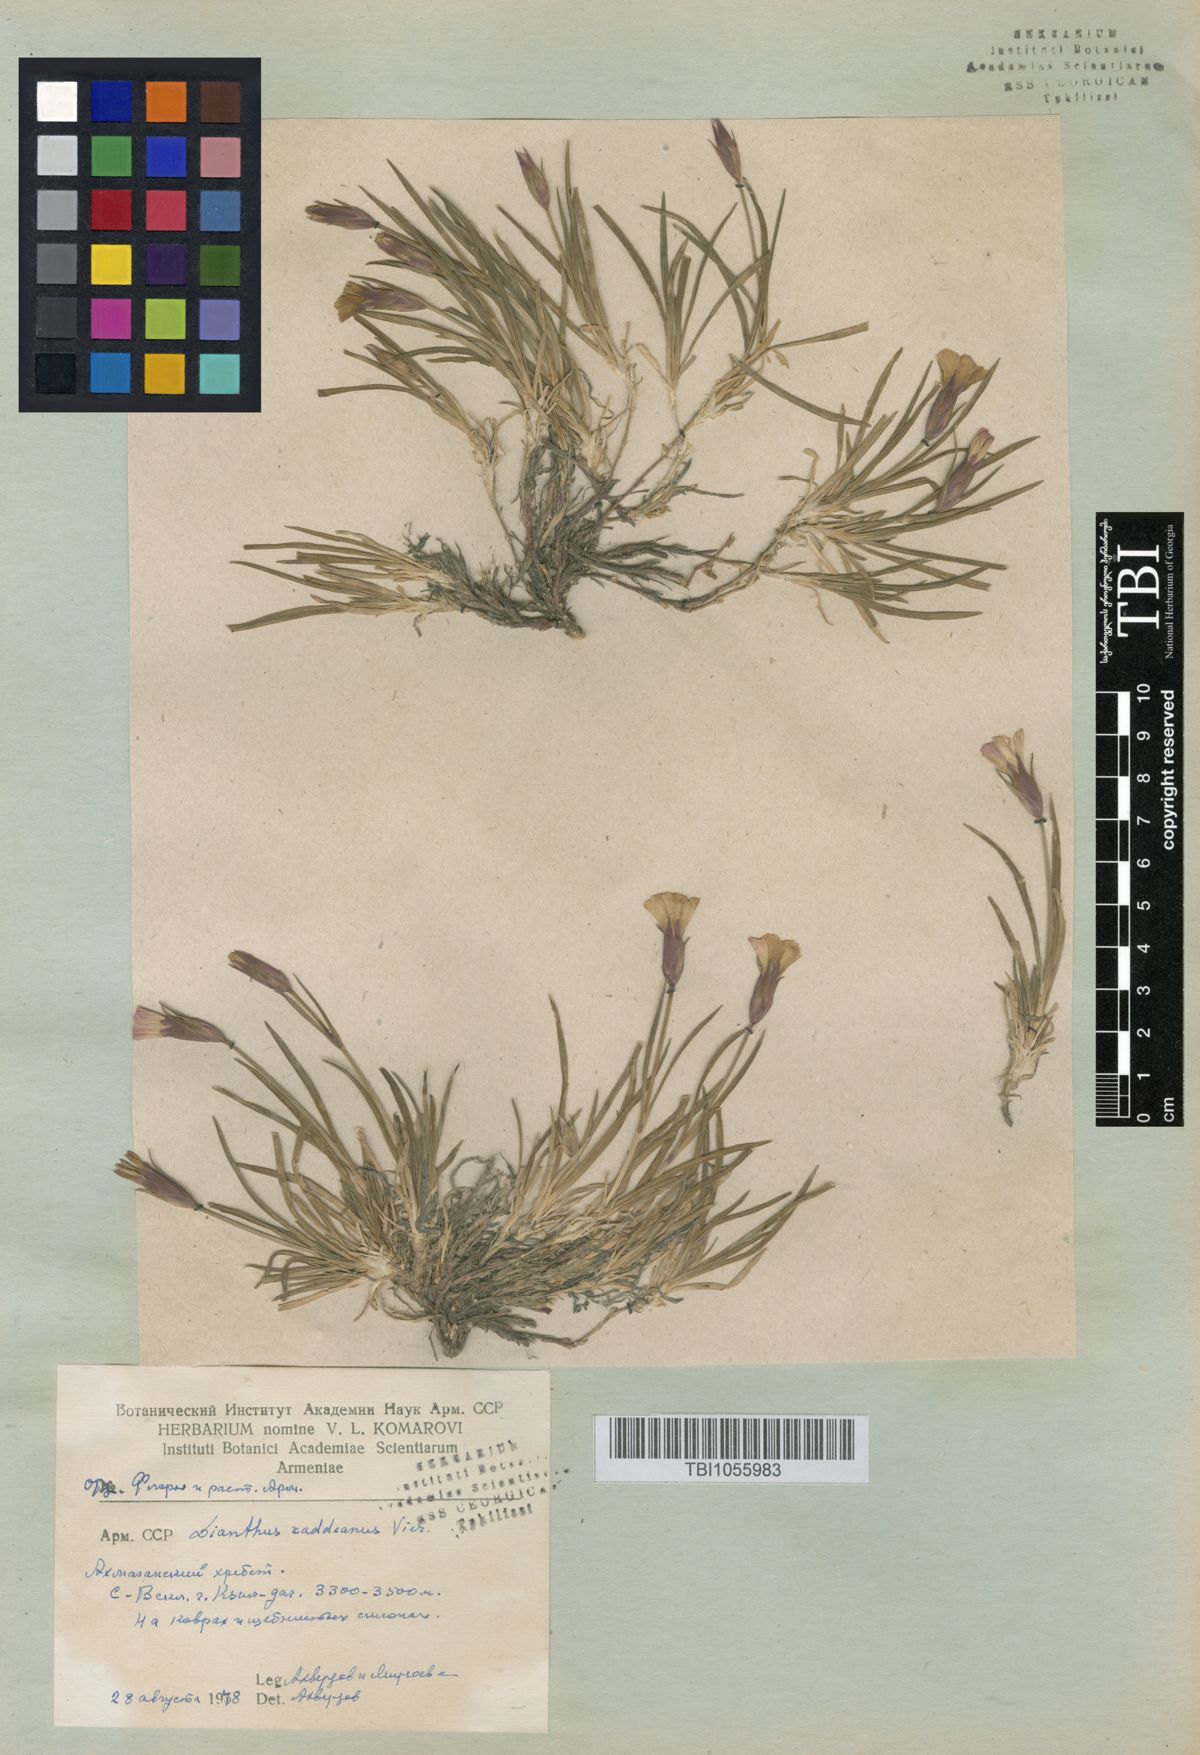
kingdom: Plantae
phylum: Tracheophyta
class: Magnoliopsida
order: Caryophyllales
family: Caryophyllaceae
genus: Dianthus
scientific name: Dianthus raddeanus
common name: Radde's pink
